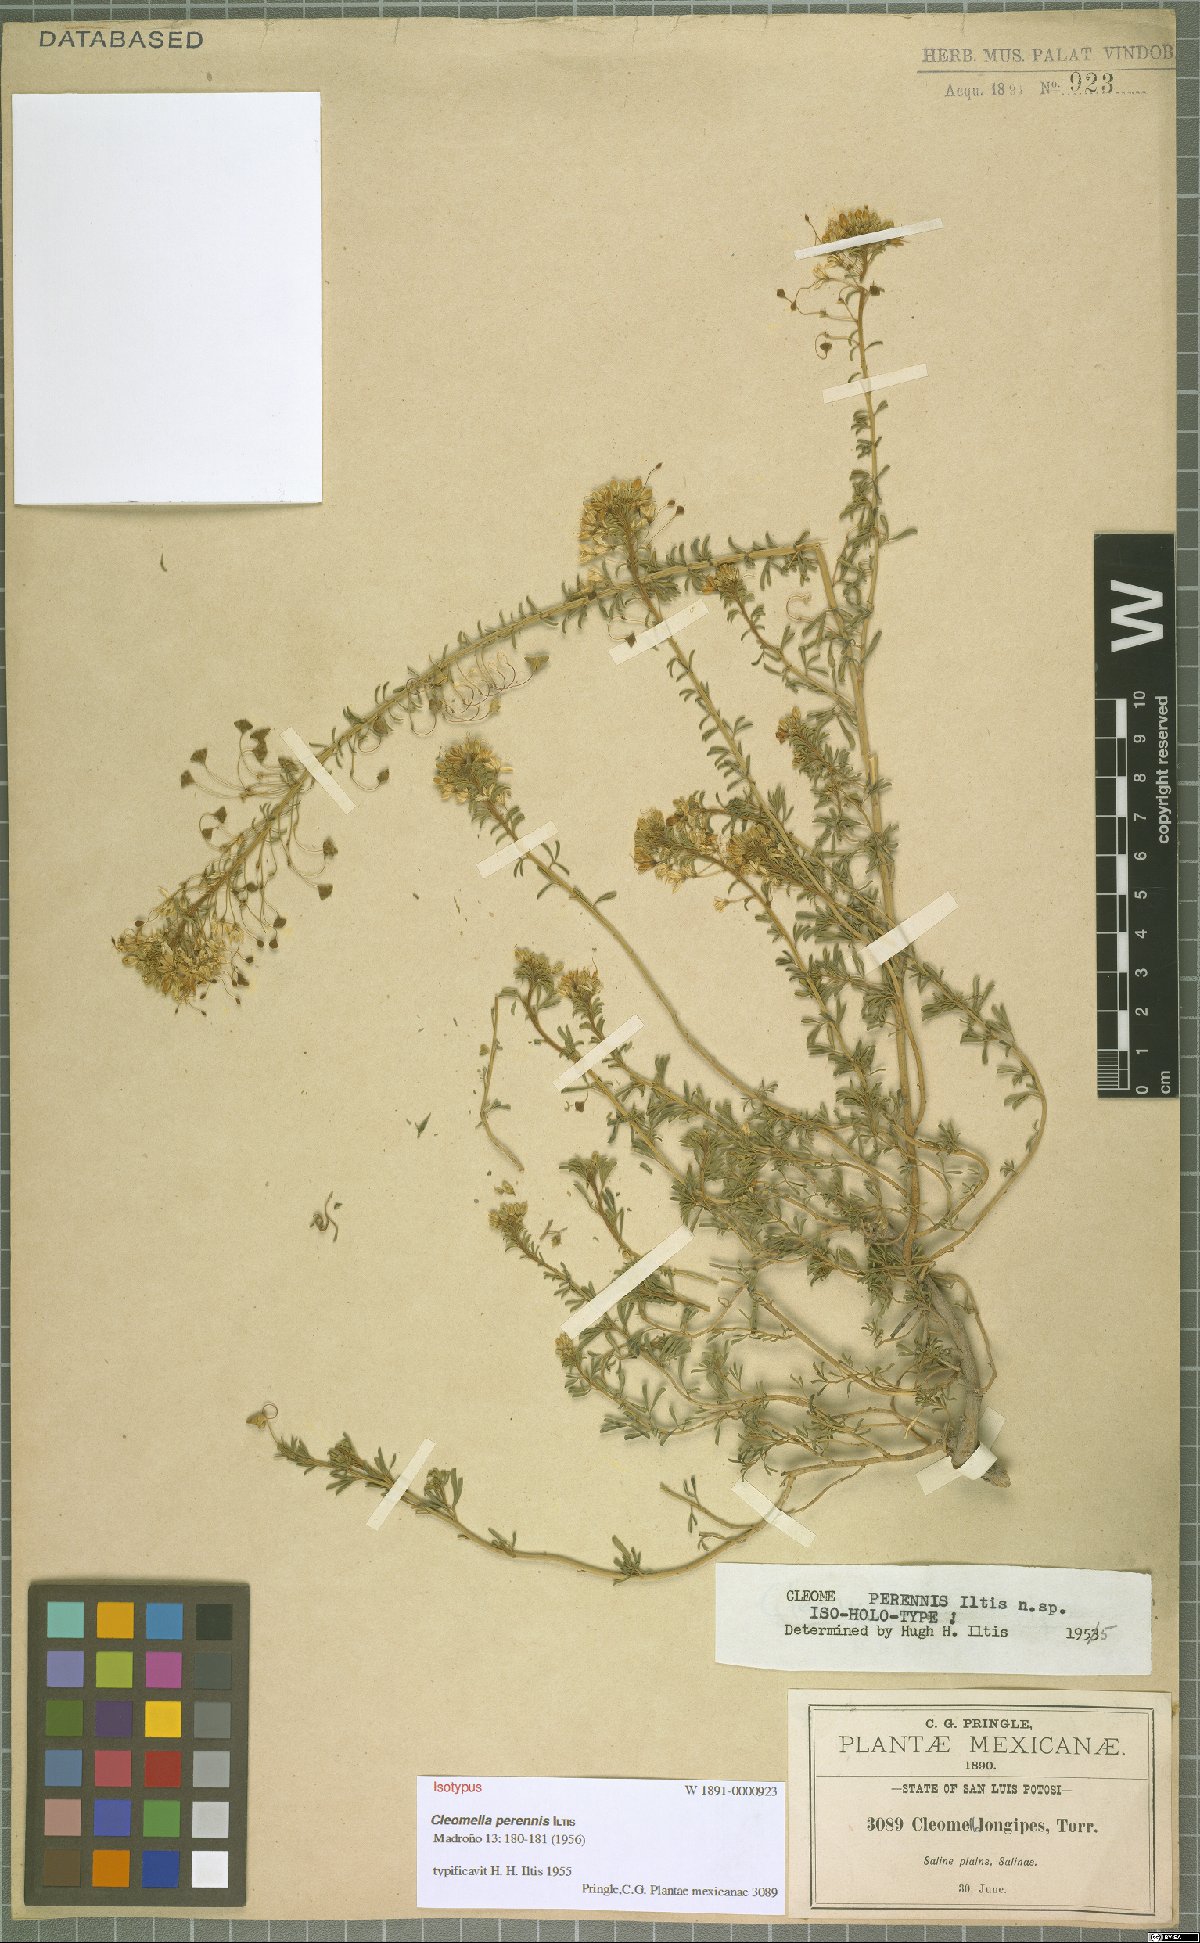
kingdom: Plantae
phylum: Tracheophyta
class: Magnoliopsida
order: Brassicales
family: Cleomaceae
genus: Cleomella
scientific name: Cleomella perennis
